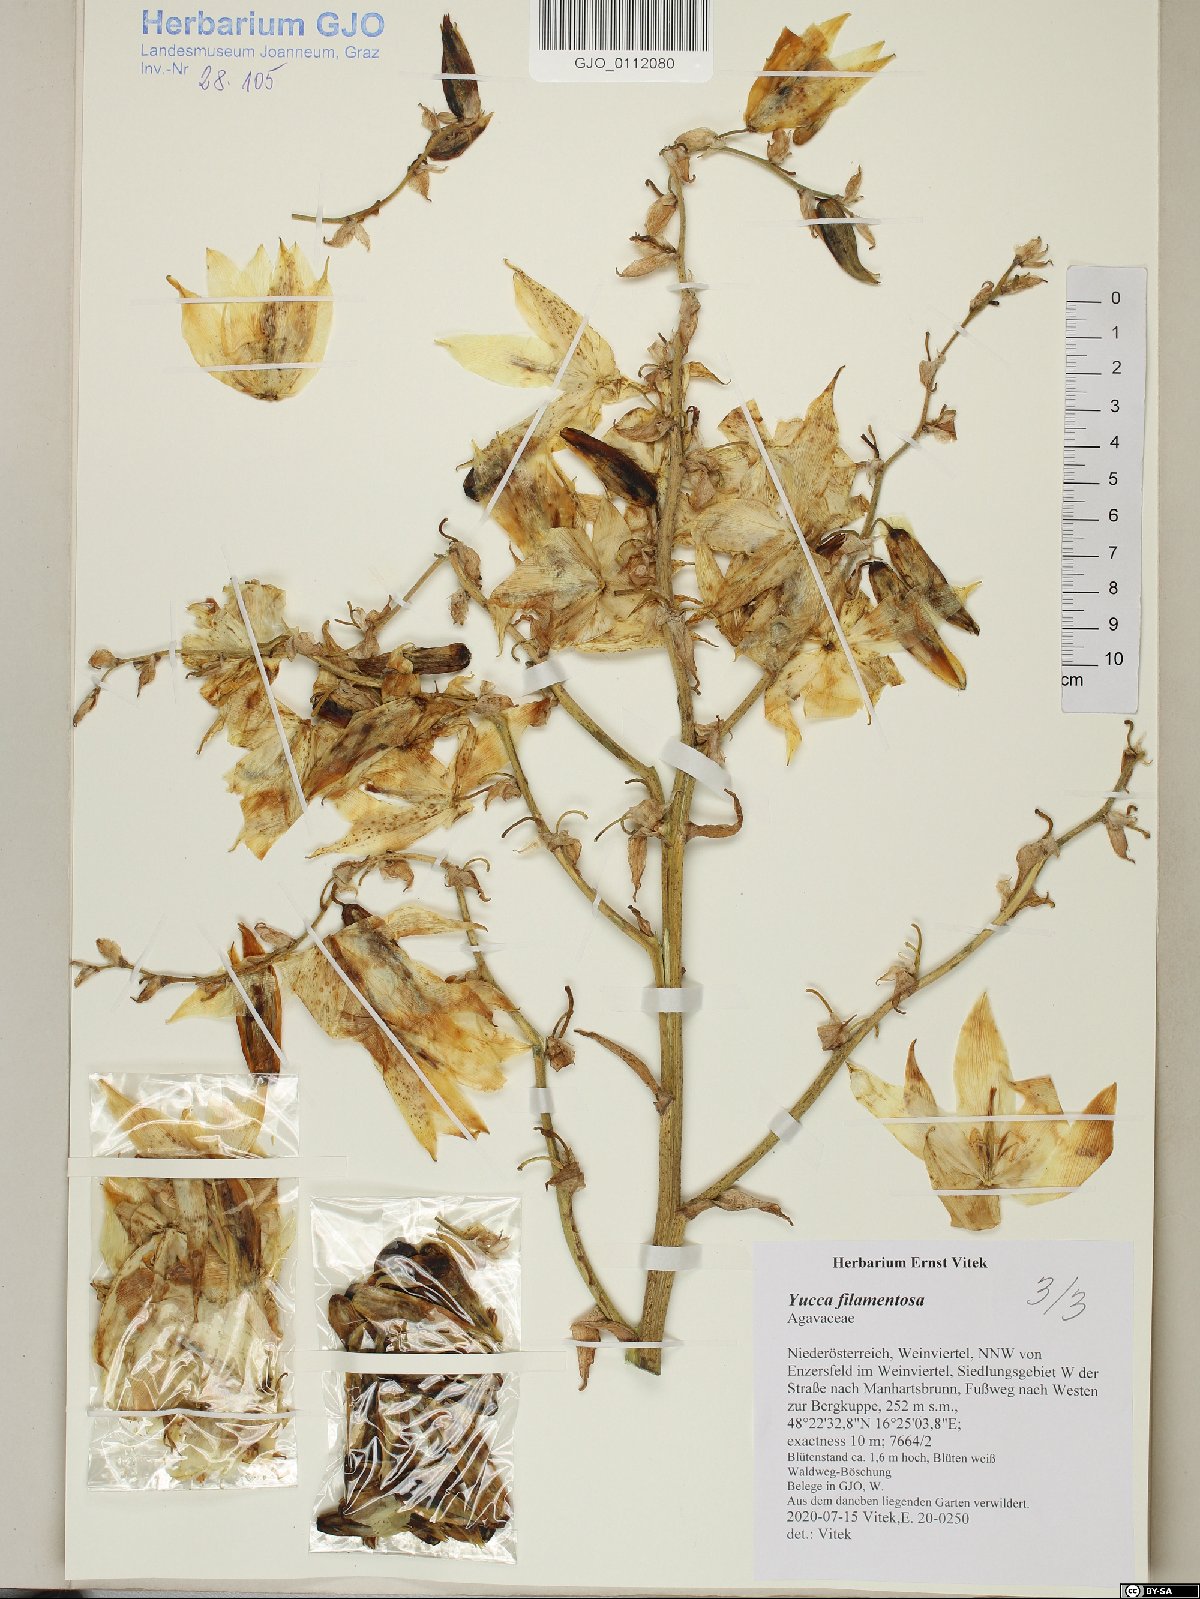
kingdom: Plantae
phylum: Tracheophyta
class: Liliopsida
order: Asparagales
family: Asparagaceae
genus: Yucca
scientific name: Yucca filamentosa
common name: Adam's-needle
